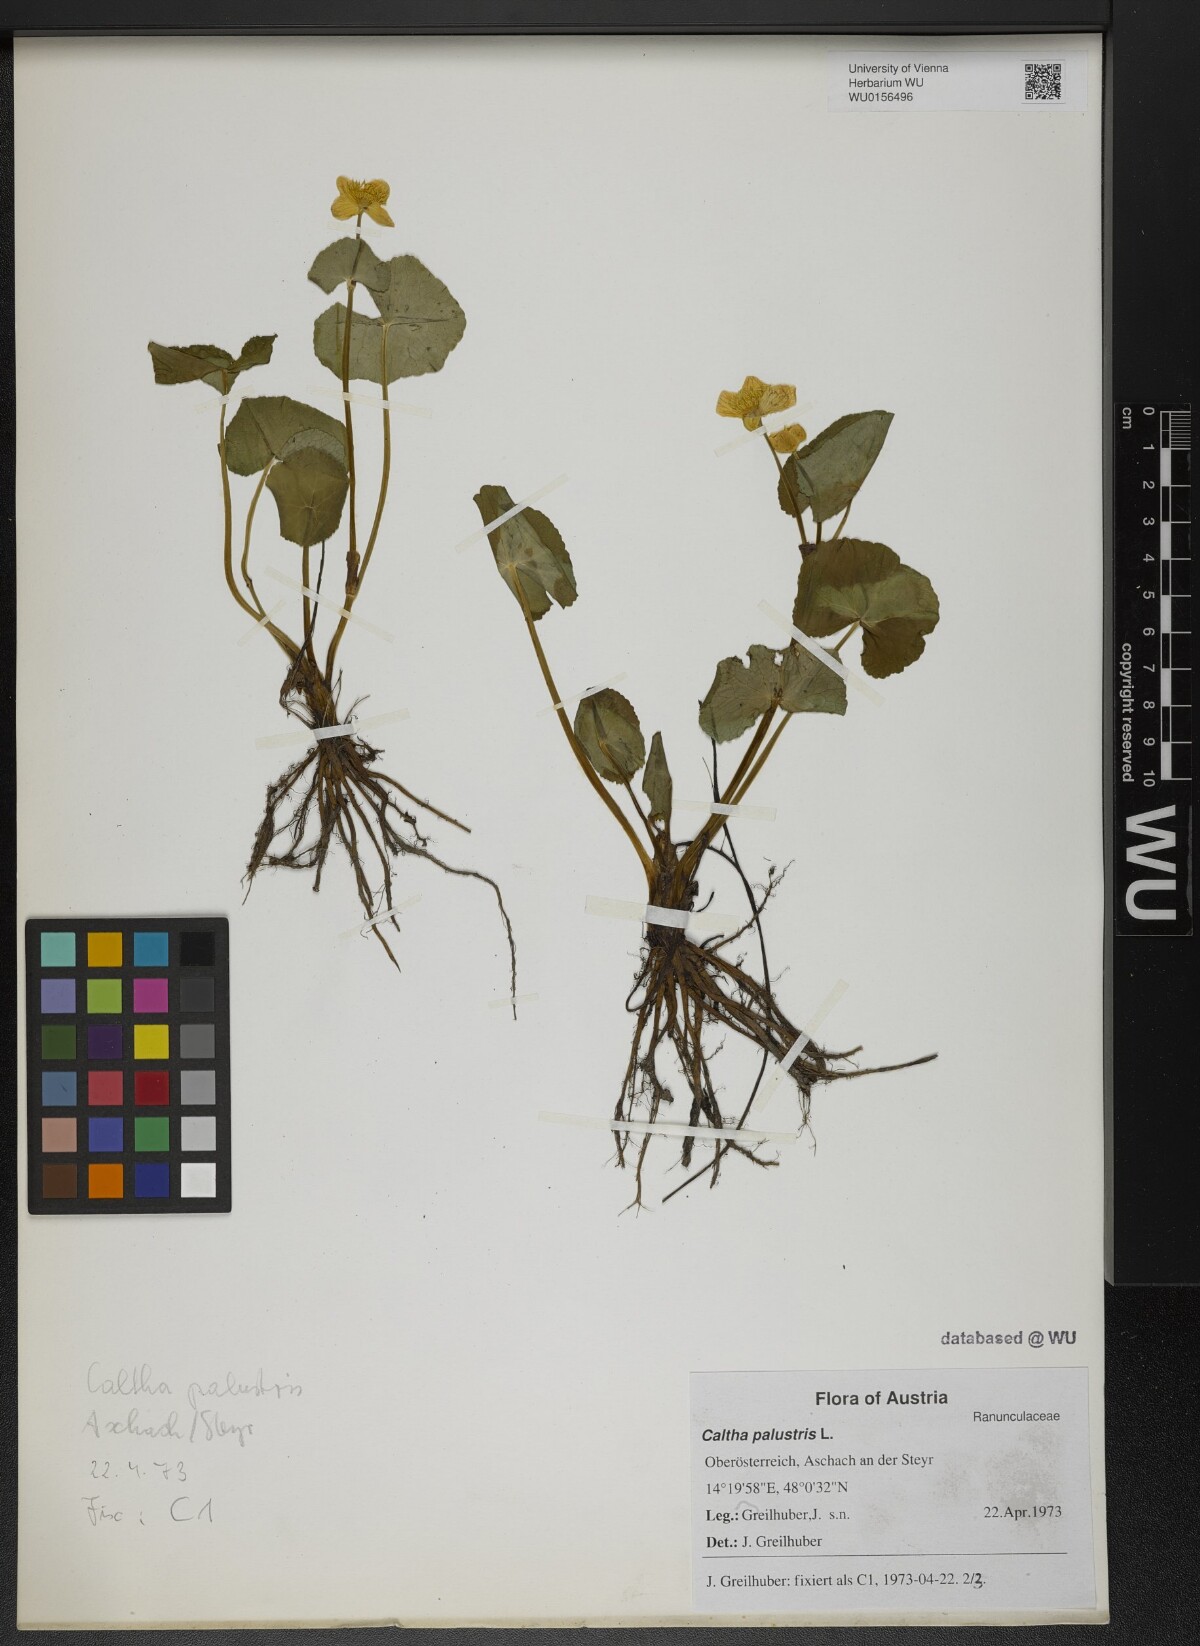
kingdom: Plantae
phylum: Tracheophyta
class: Magnoliopsida
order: Ranunculales
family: Ranunculaceae
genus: Caltha
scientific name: Caltha palustris
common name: Marsh marigold
